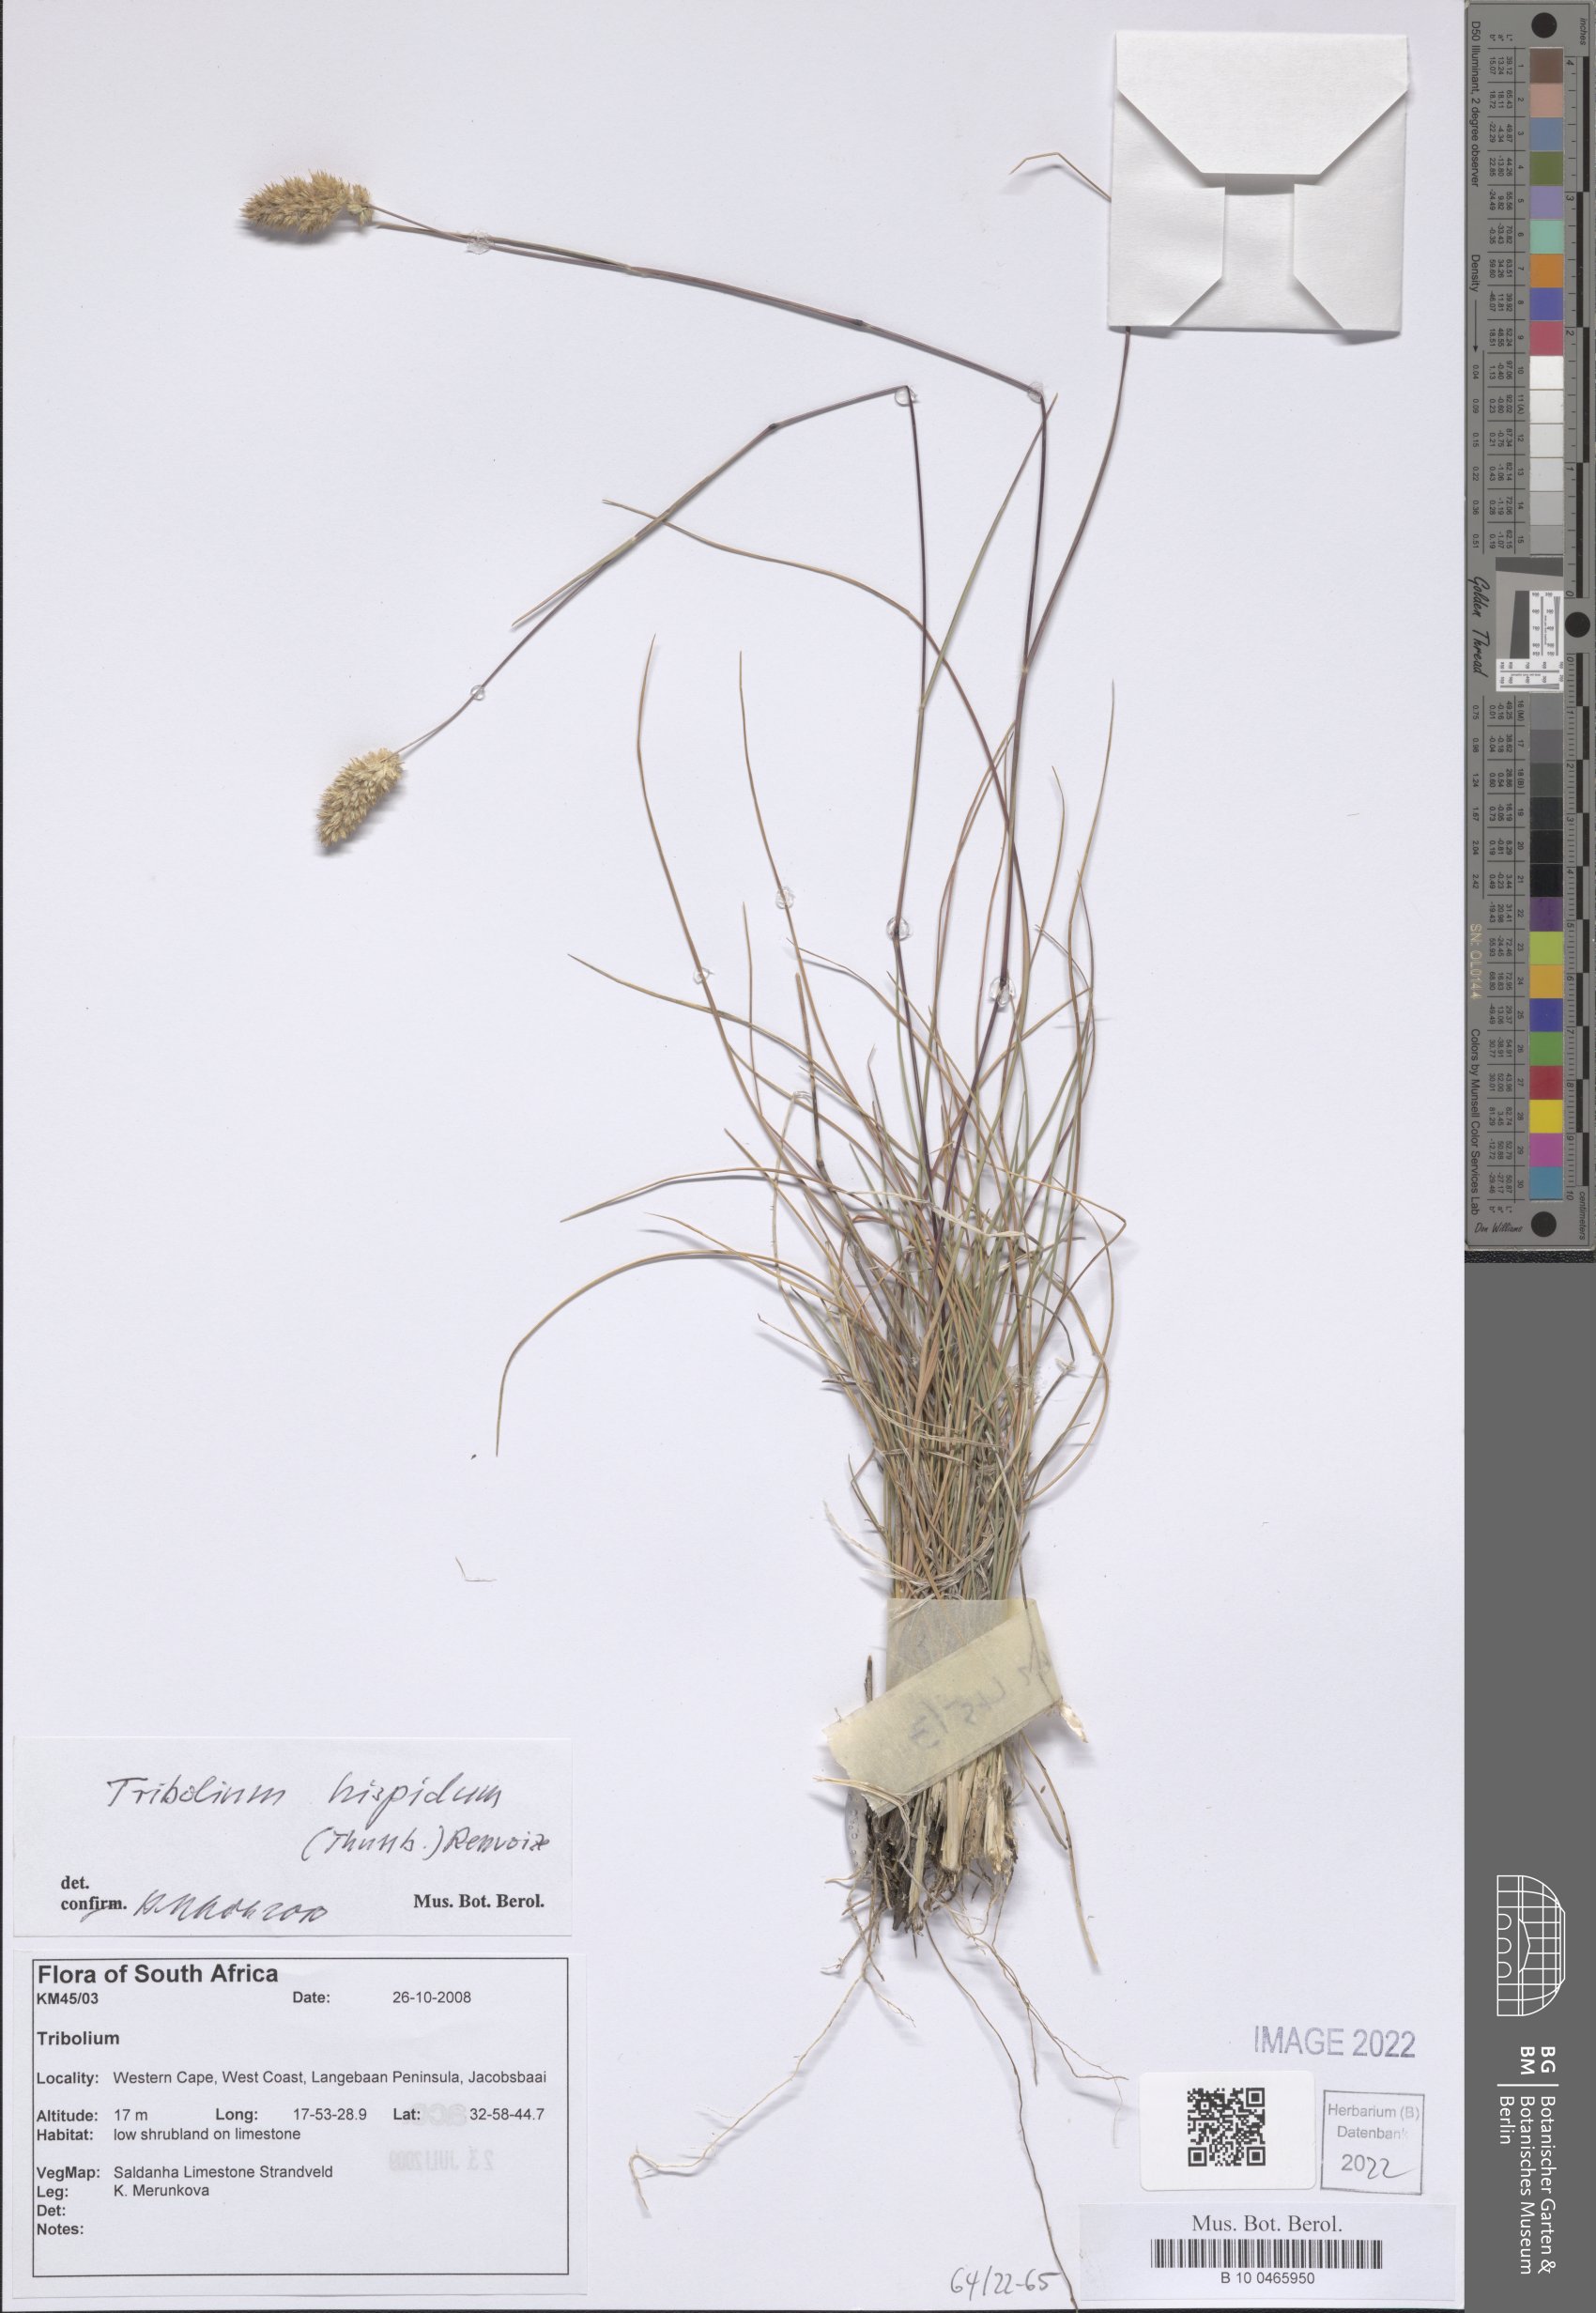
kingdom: Plantae
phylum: Tracheophyta
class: Liliopsida
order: Poales
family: Poaceae
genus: Tribolium
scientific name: Tribolium hispidum
